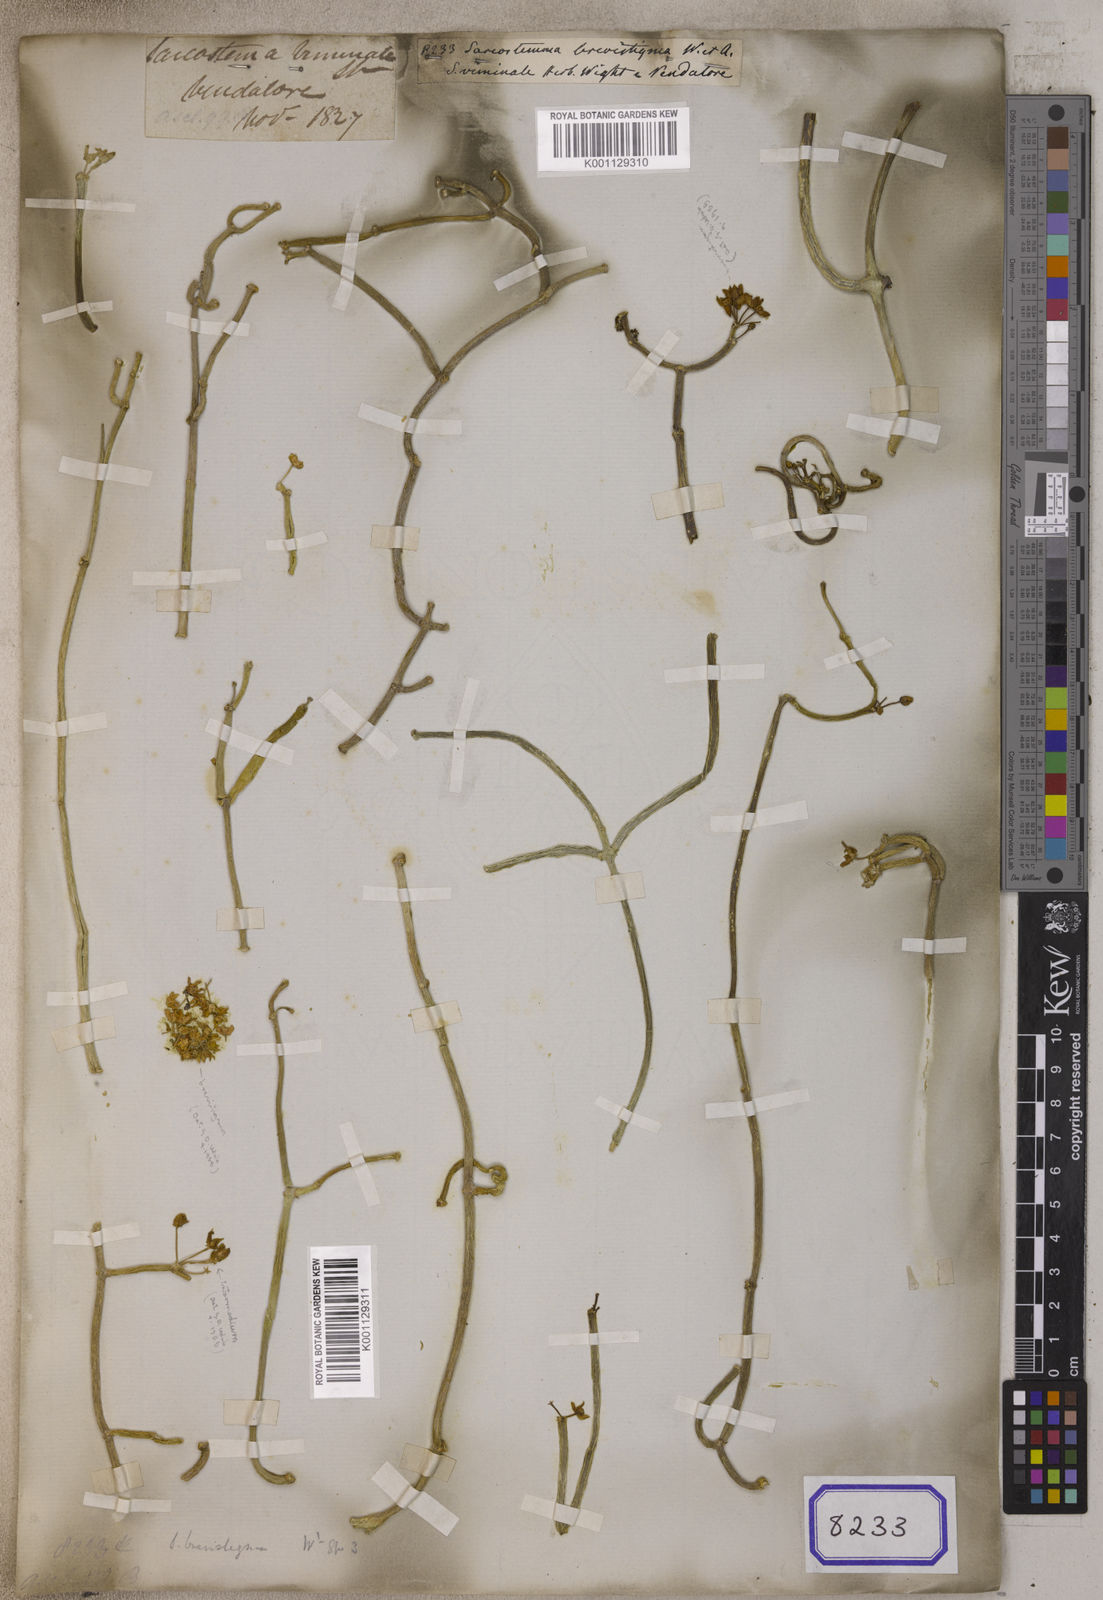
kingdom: Plantae
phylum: Tracheophyta
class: Magnoliopsida
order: Gentianales
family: Apocynaceae
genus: Cynanchum
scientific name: Cynanchum acidum
